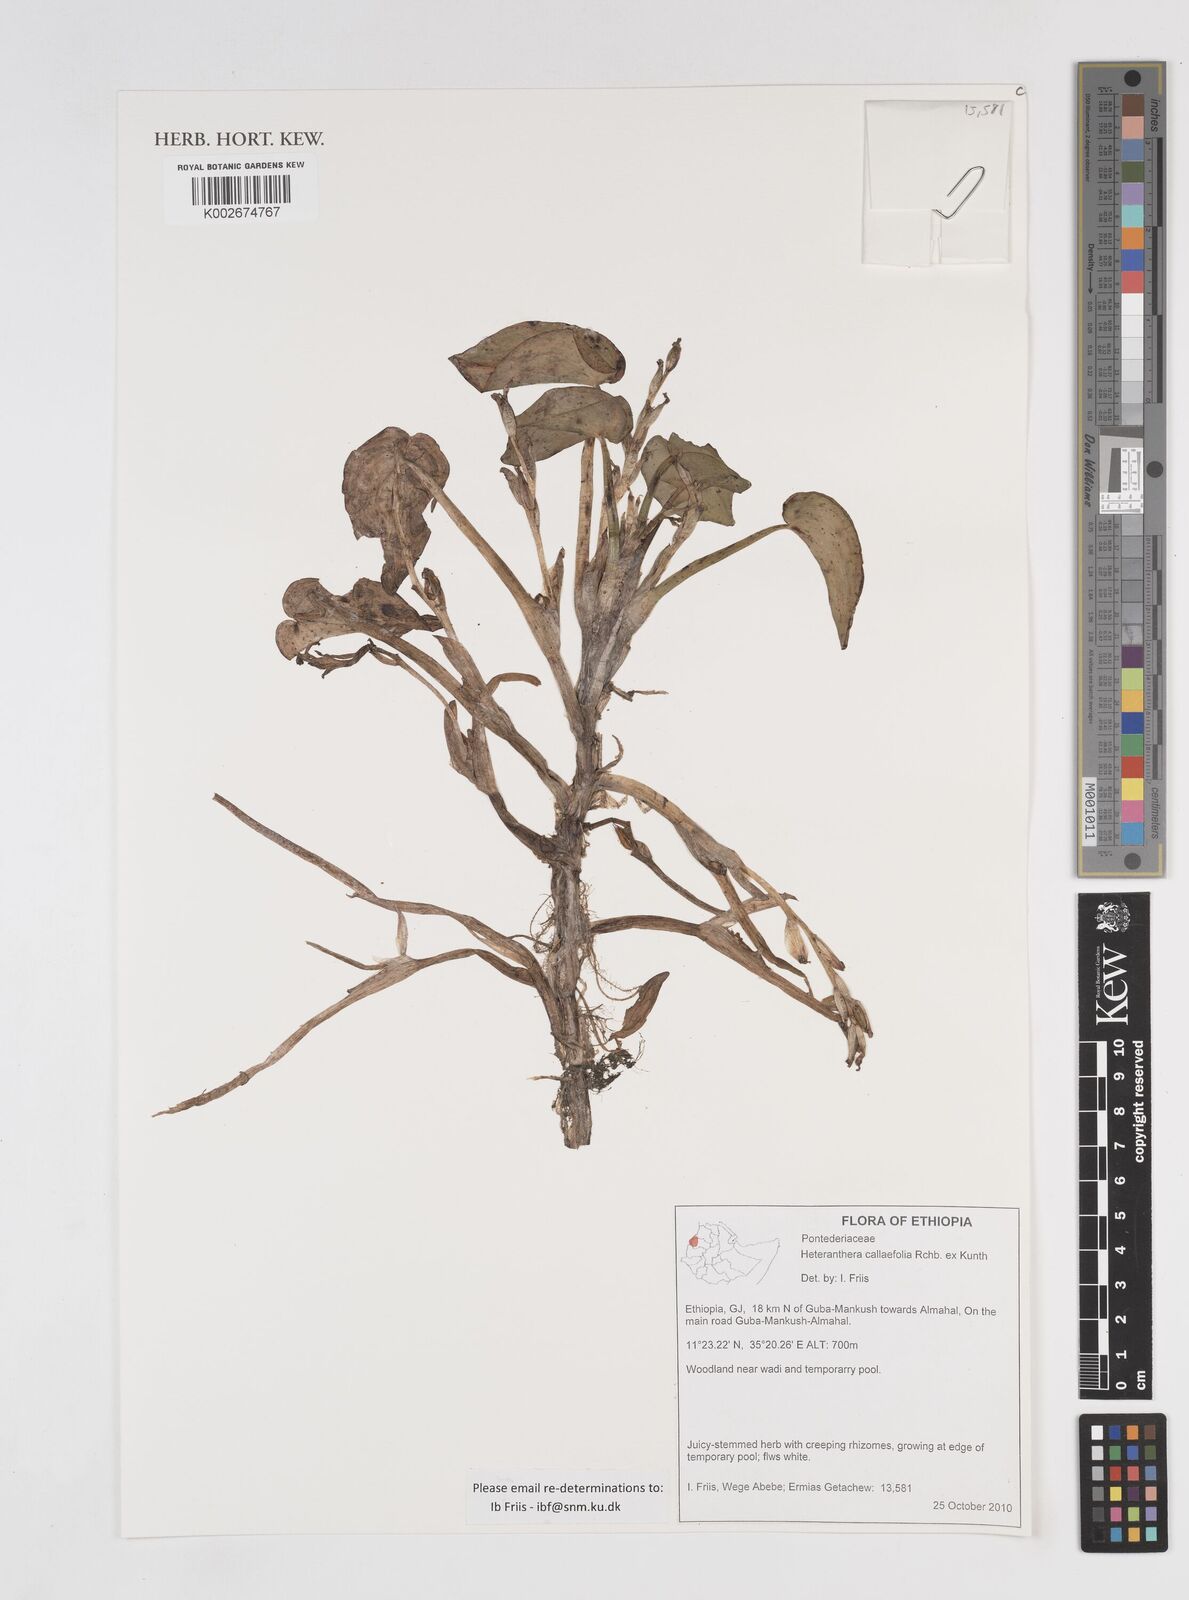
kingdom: Plantae
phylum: Tracheophyta
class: Liliopsida
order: Commelinales
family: Pontederiaceae
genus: Heteranthera
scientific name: Heteranthera callifolia
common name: Mud plantain
